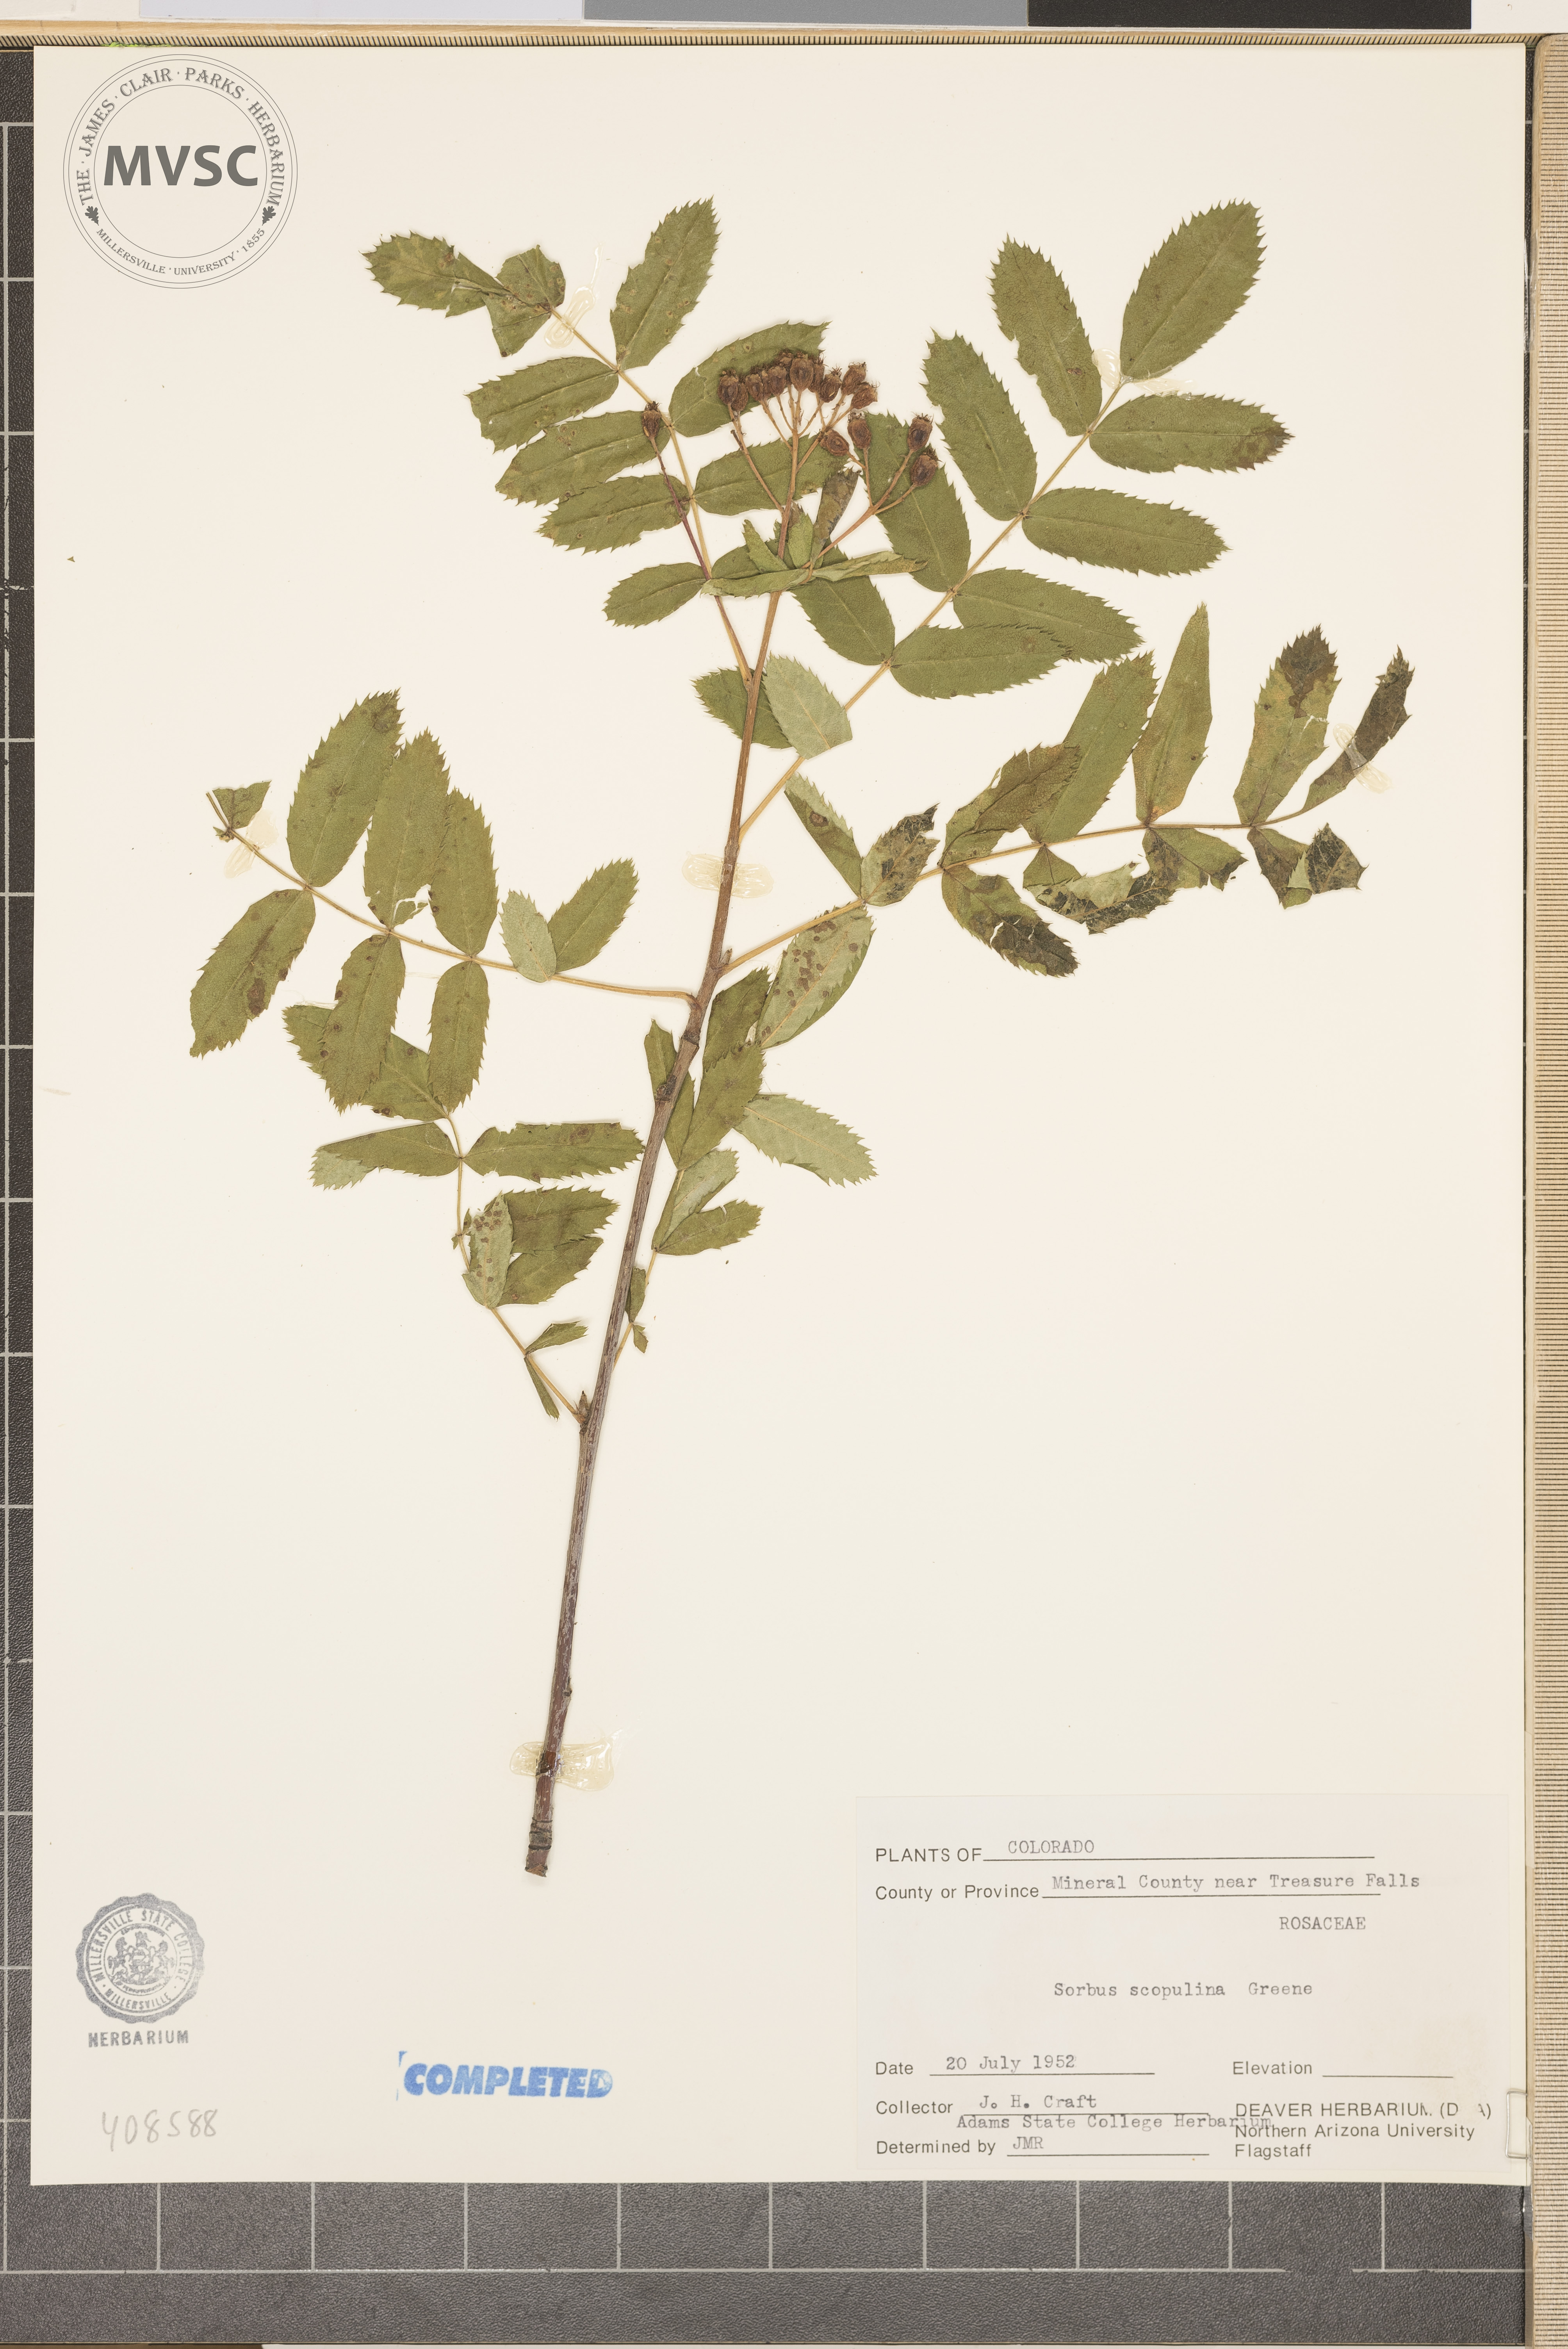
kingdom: Plantae
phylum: Tracheophyta
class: Magnoliopsida
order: Rosales
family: Rosaceae
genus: Sorbus
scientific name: Sorbus scopulina
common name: Greene's mountain-ash
